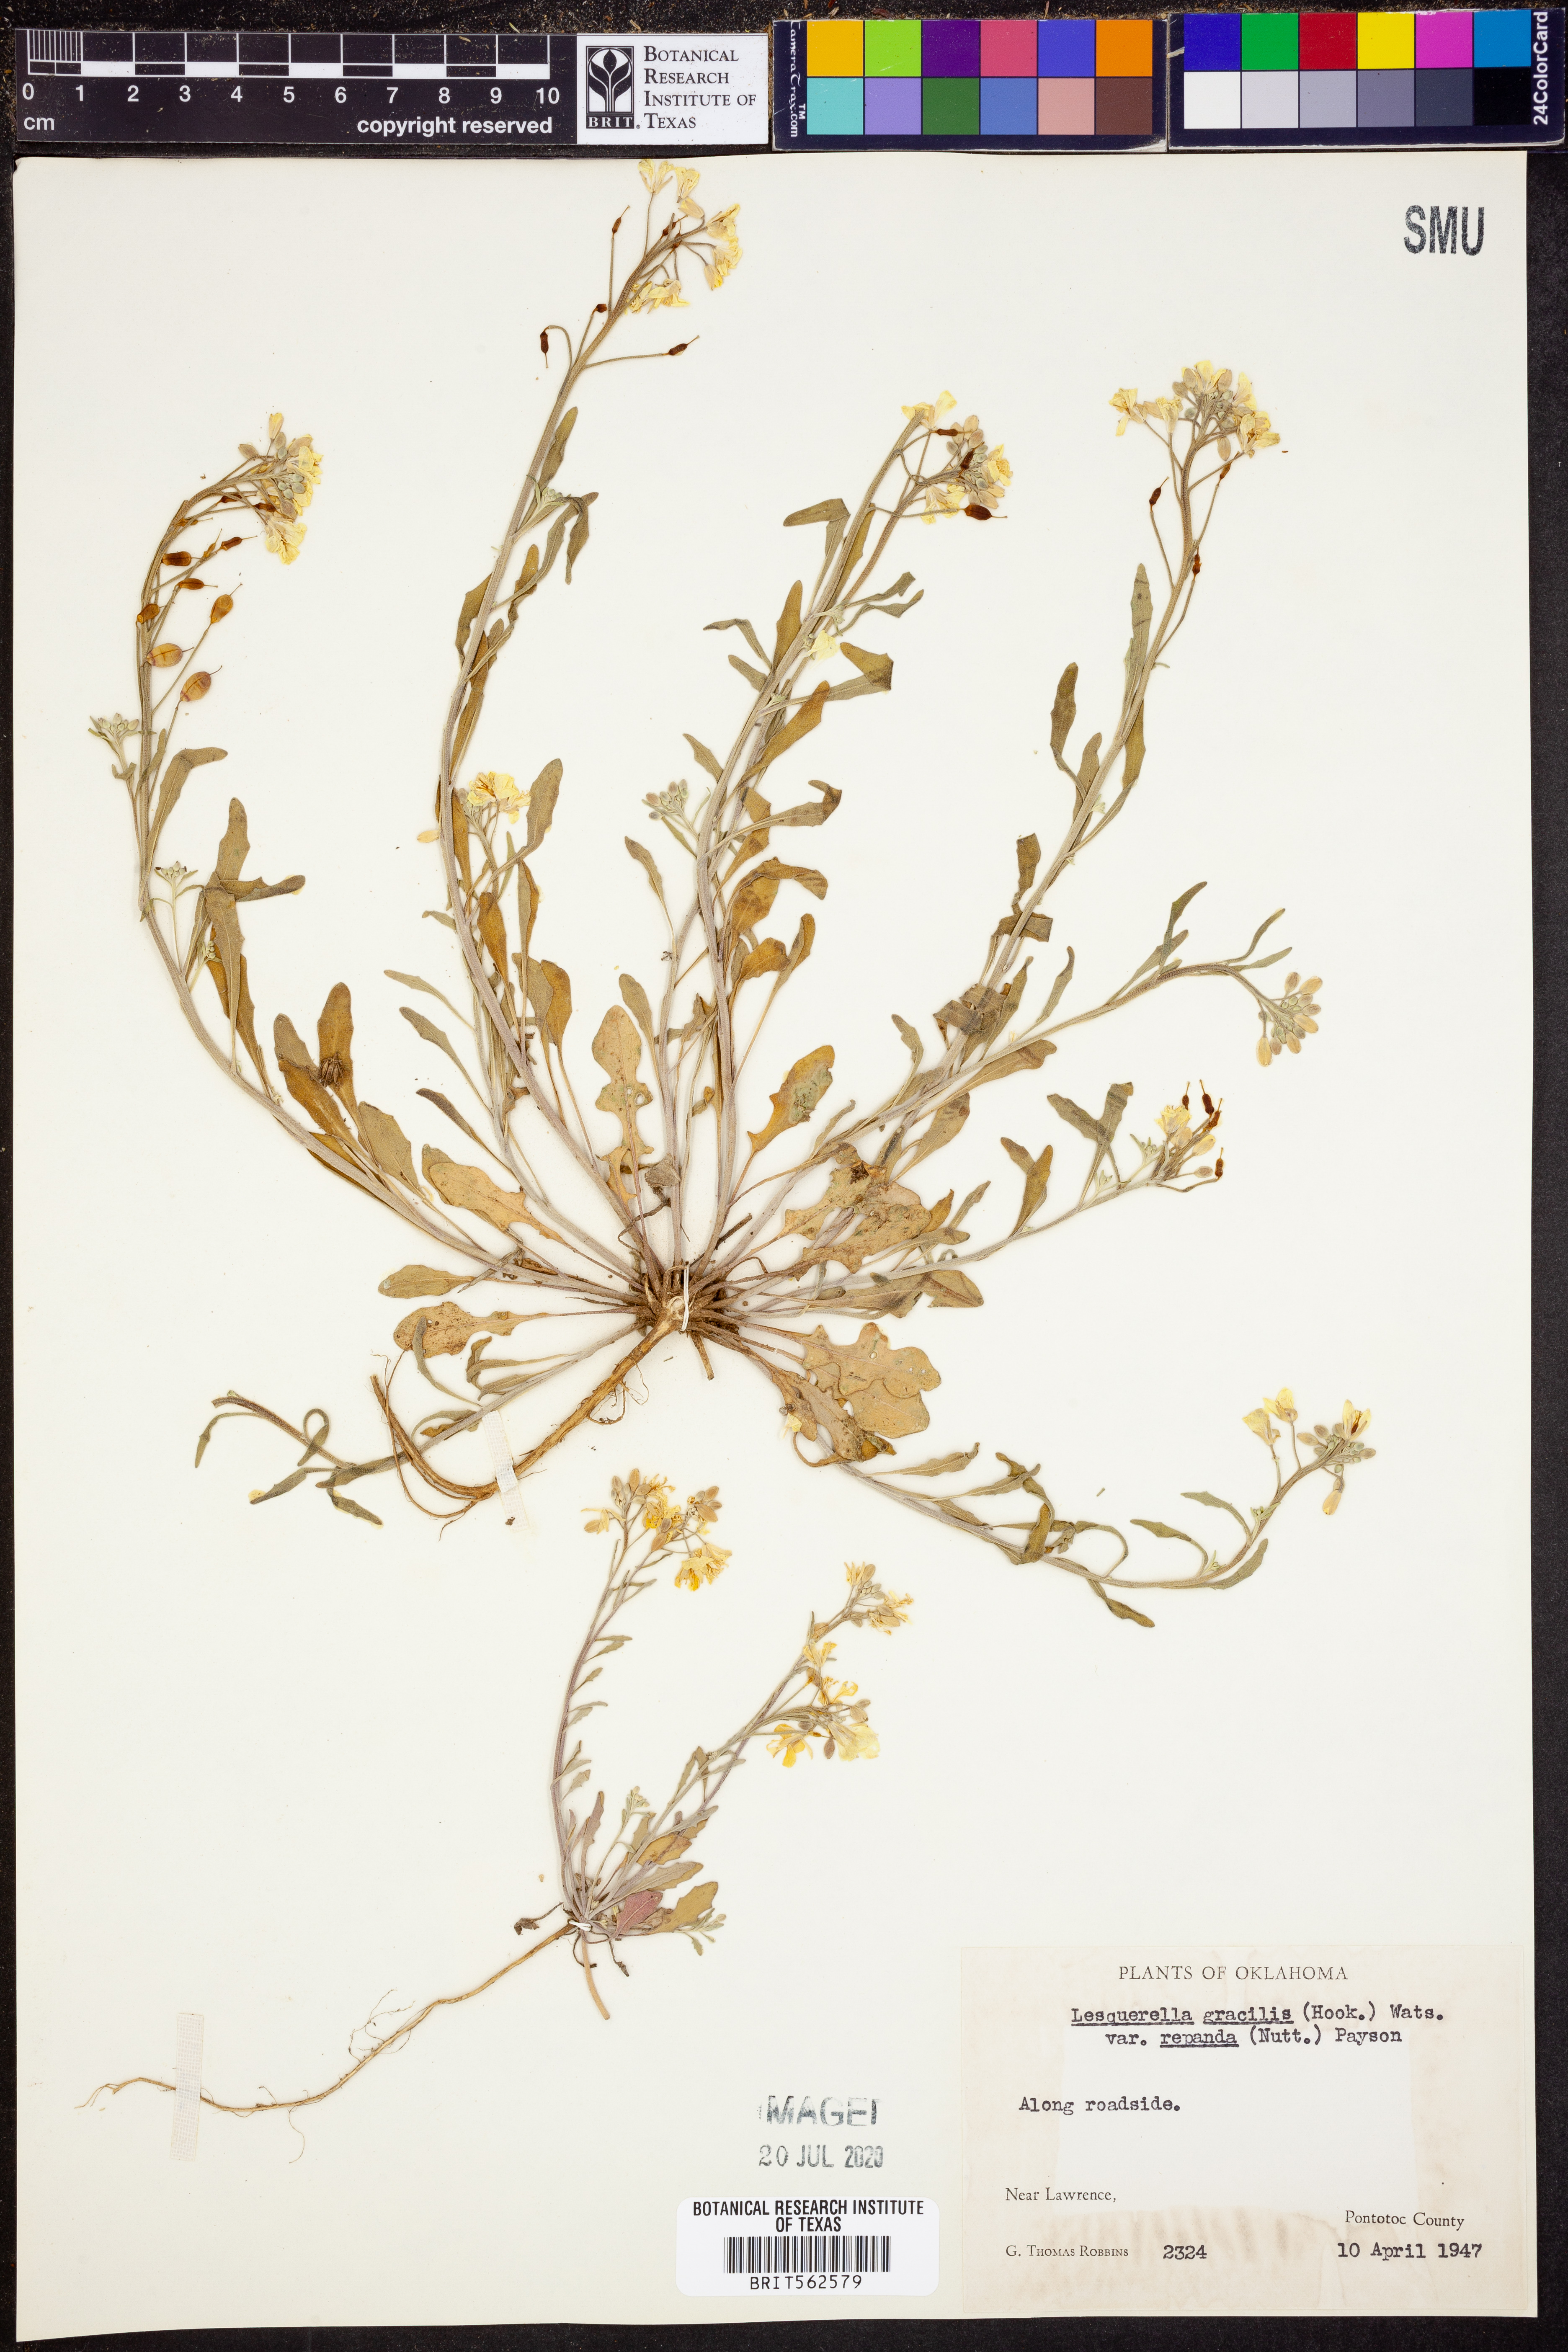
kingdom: Plantae
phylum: Tracheophyta
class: Magnoliopsida
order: Brassicales
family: Brassicaceae
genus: Physaria
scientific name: Physaria gracilis
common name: Spreading bladderpod
